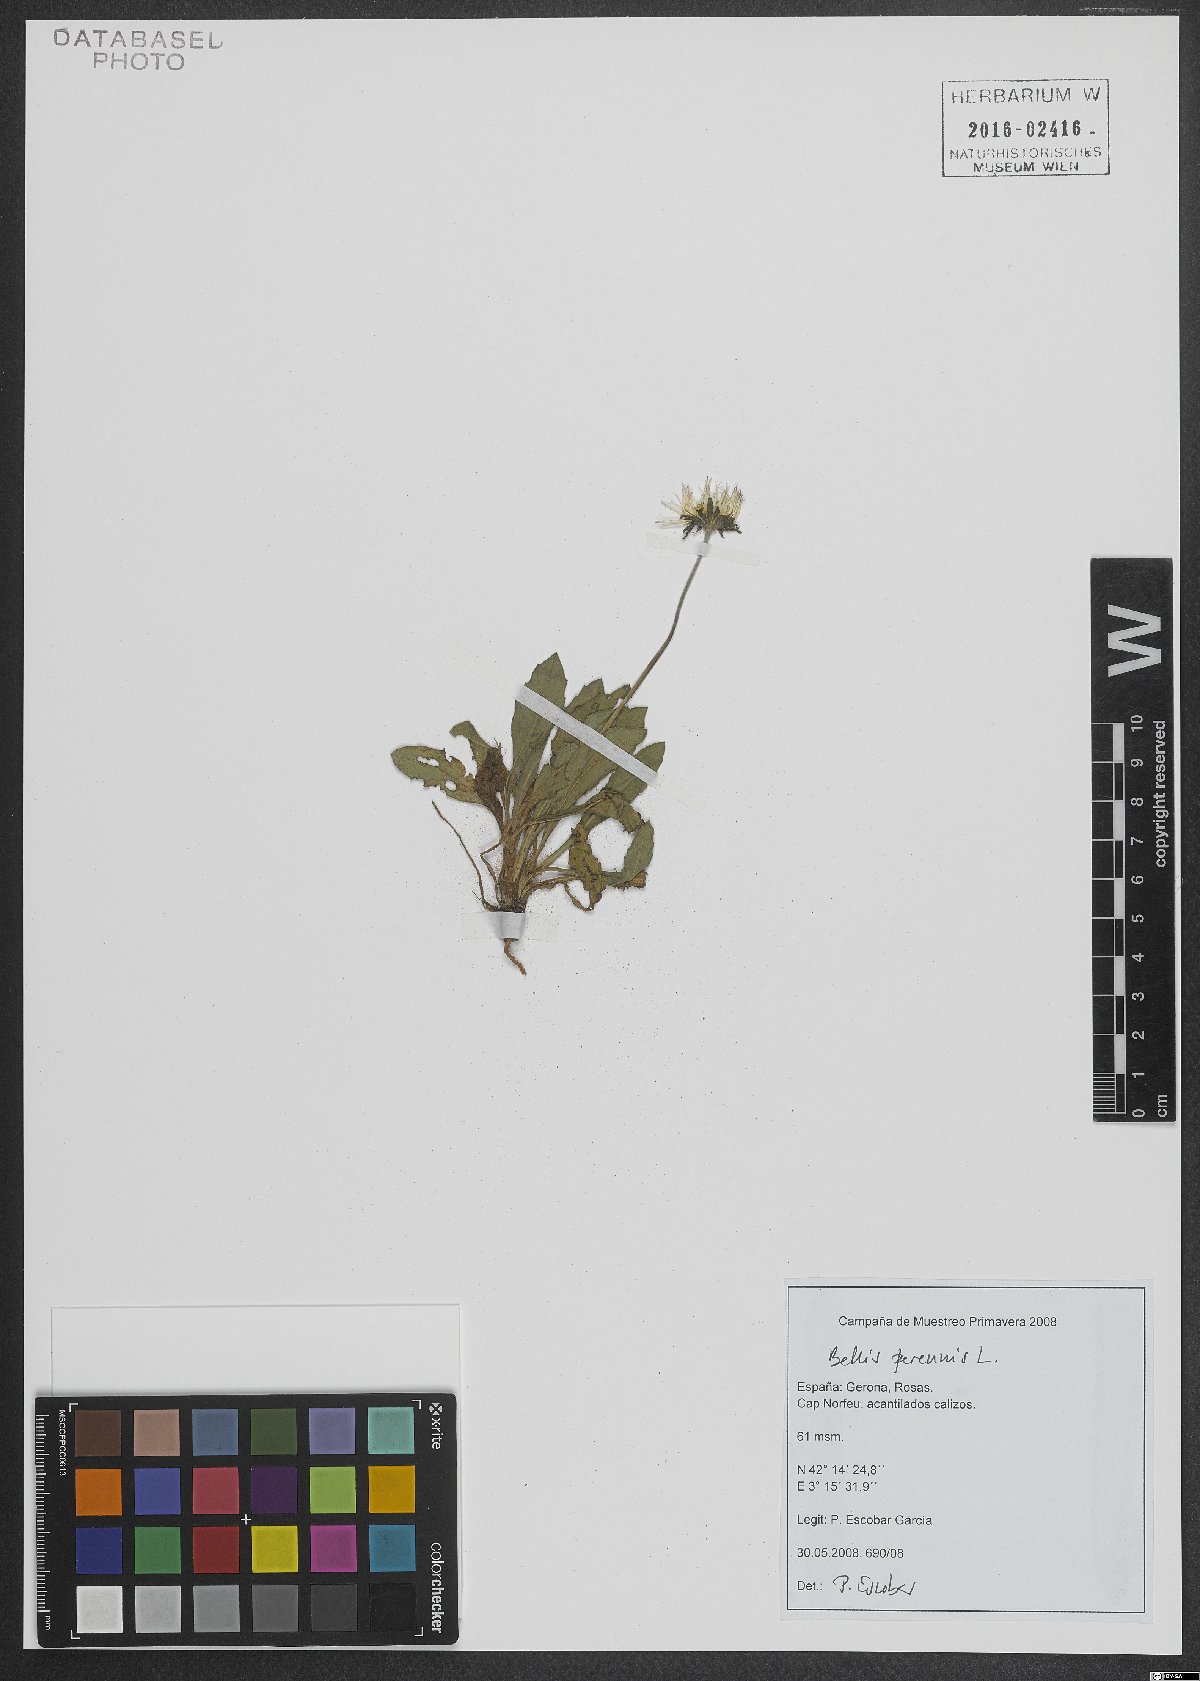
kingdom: Plantae
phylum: Tracheophyta
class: Magnoliopsida
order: Asterales
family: Asteraceae
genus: Bellis
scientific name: Bellis perennis
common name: Lawndaisy
